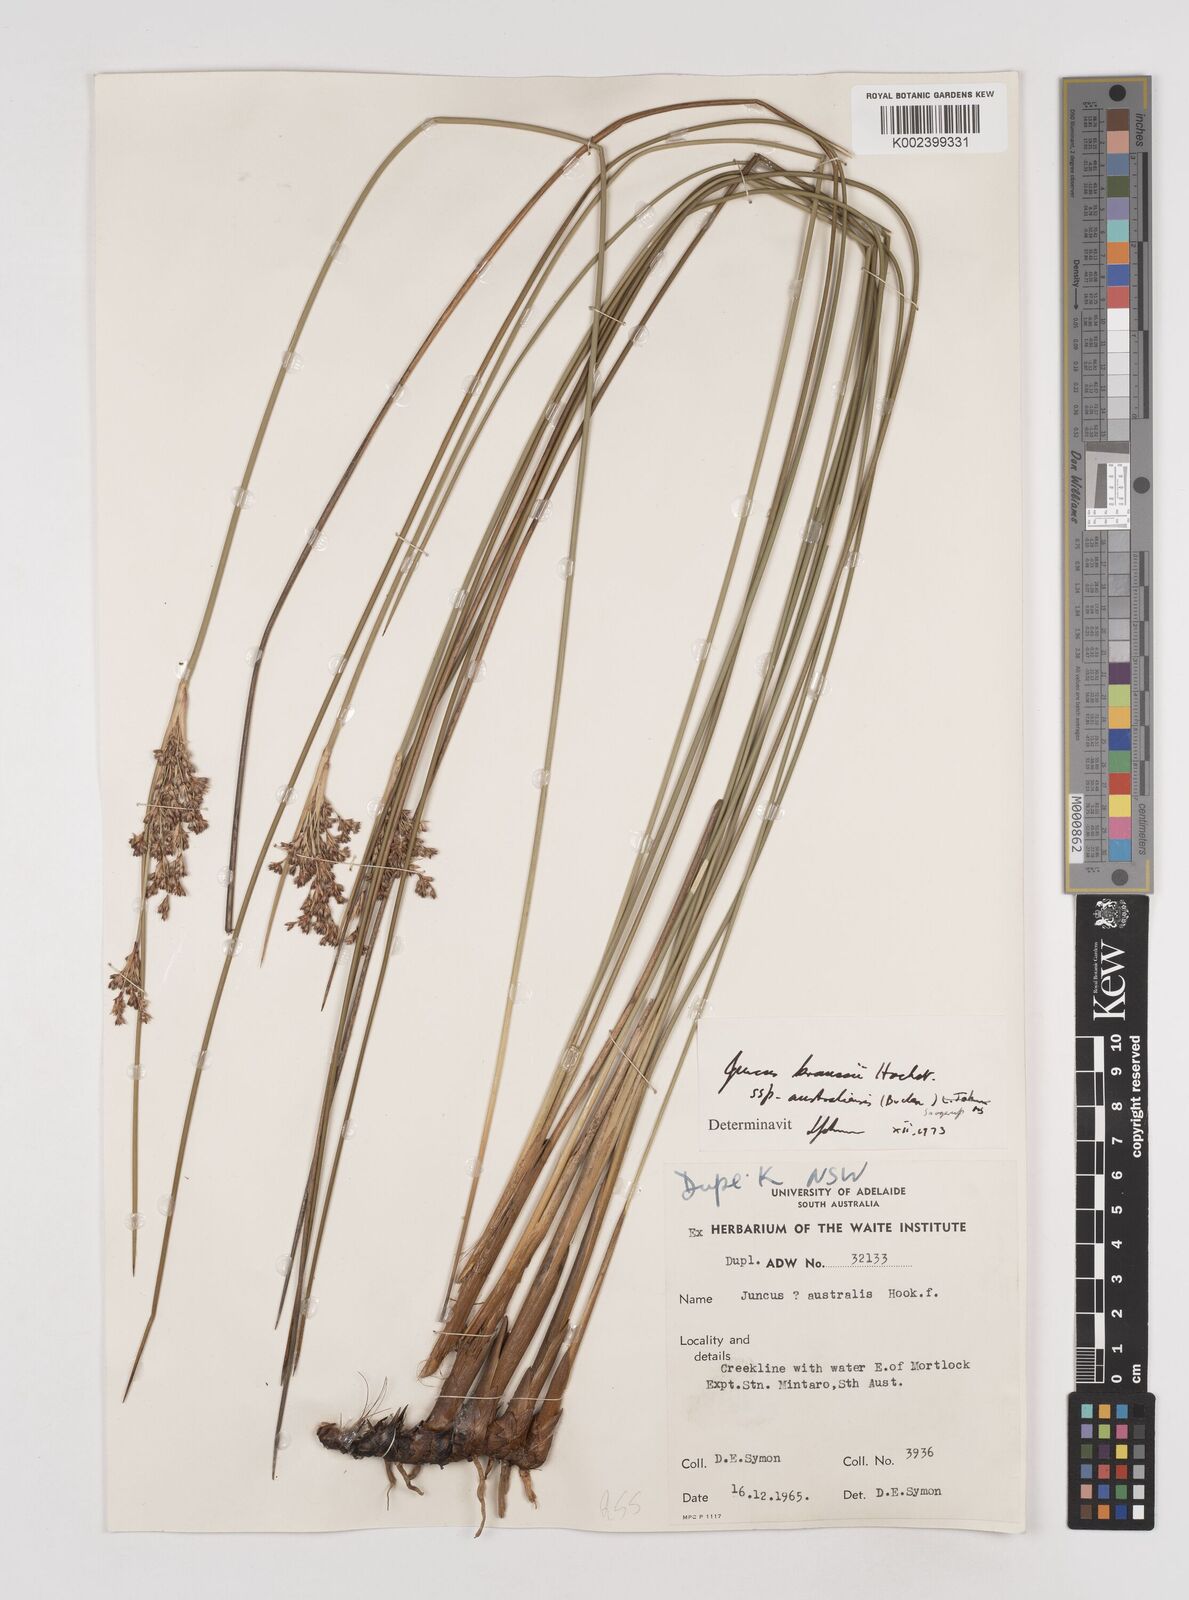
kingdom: Plantae
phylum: Tracheophyta
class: Liliopsida
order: Poales
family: Juncaceae
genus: Juncus
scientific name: Juncus kraussii
